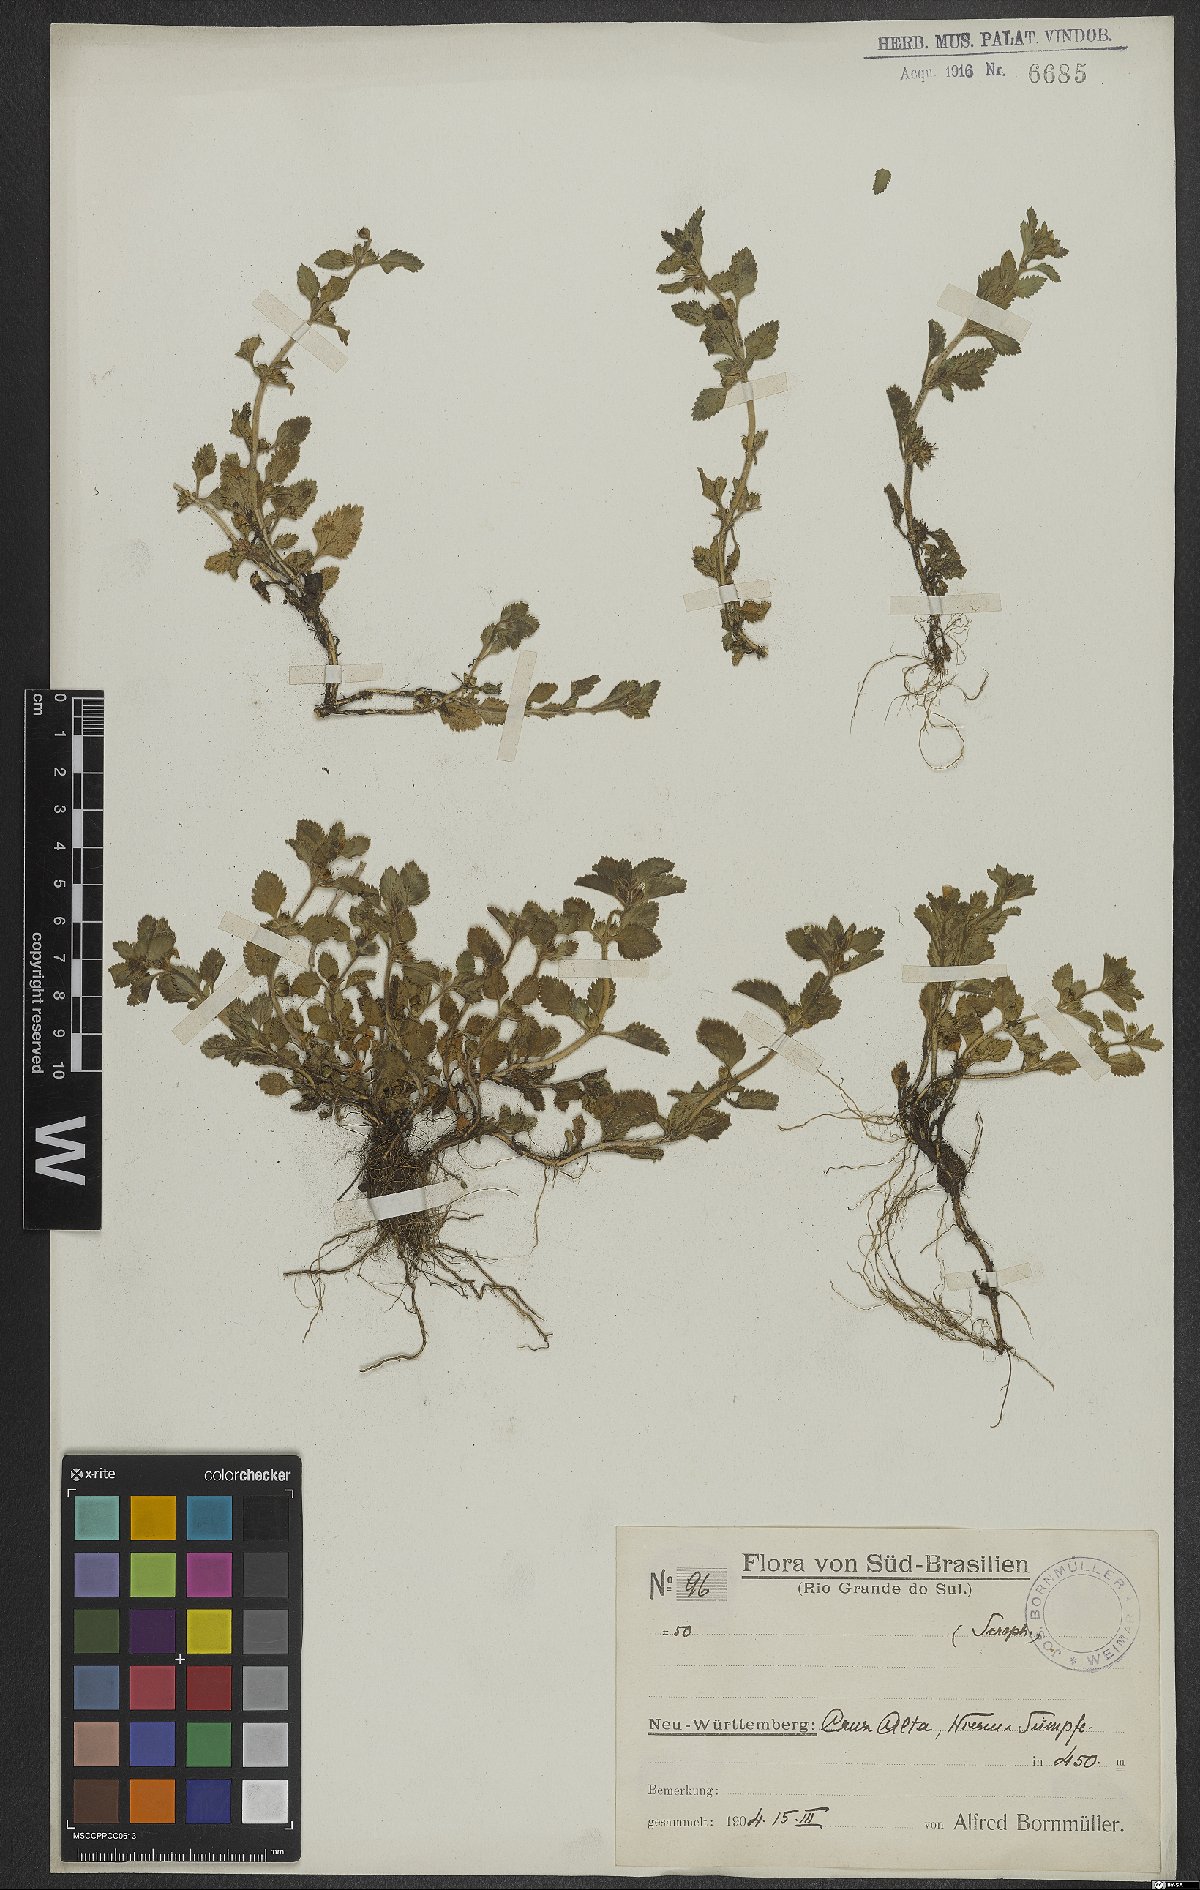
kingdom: Plantae
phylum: Tracheophyta
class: Magnoliopsida
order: Lamiales
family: Scrophulariaceae
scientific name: Scrophulariaceae
